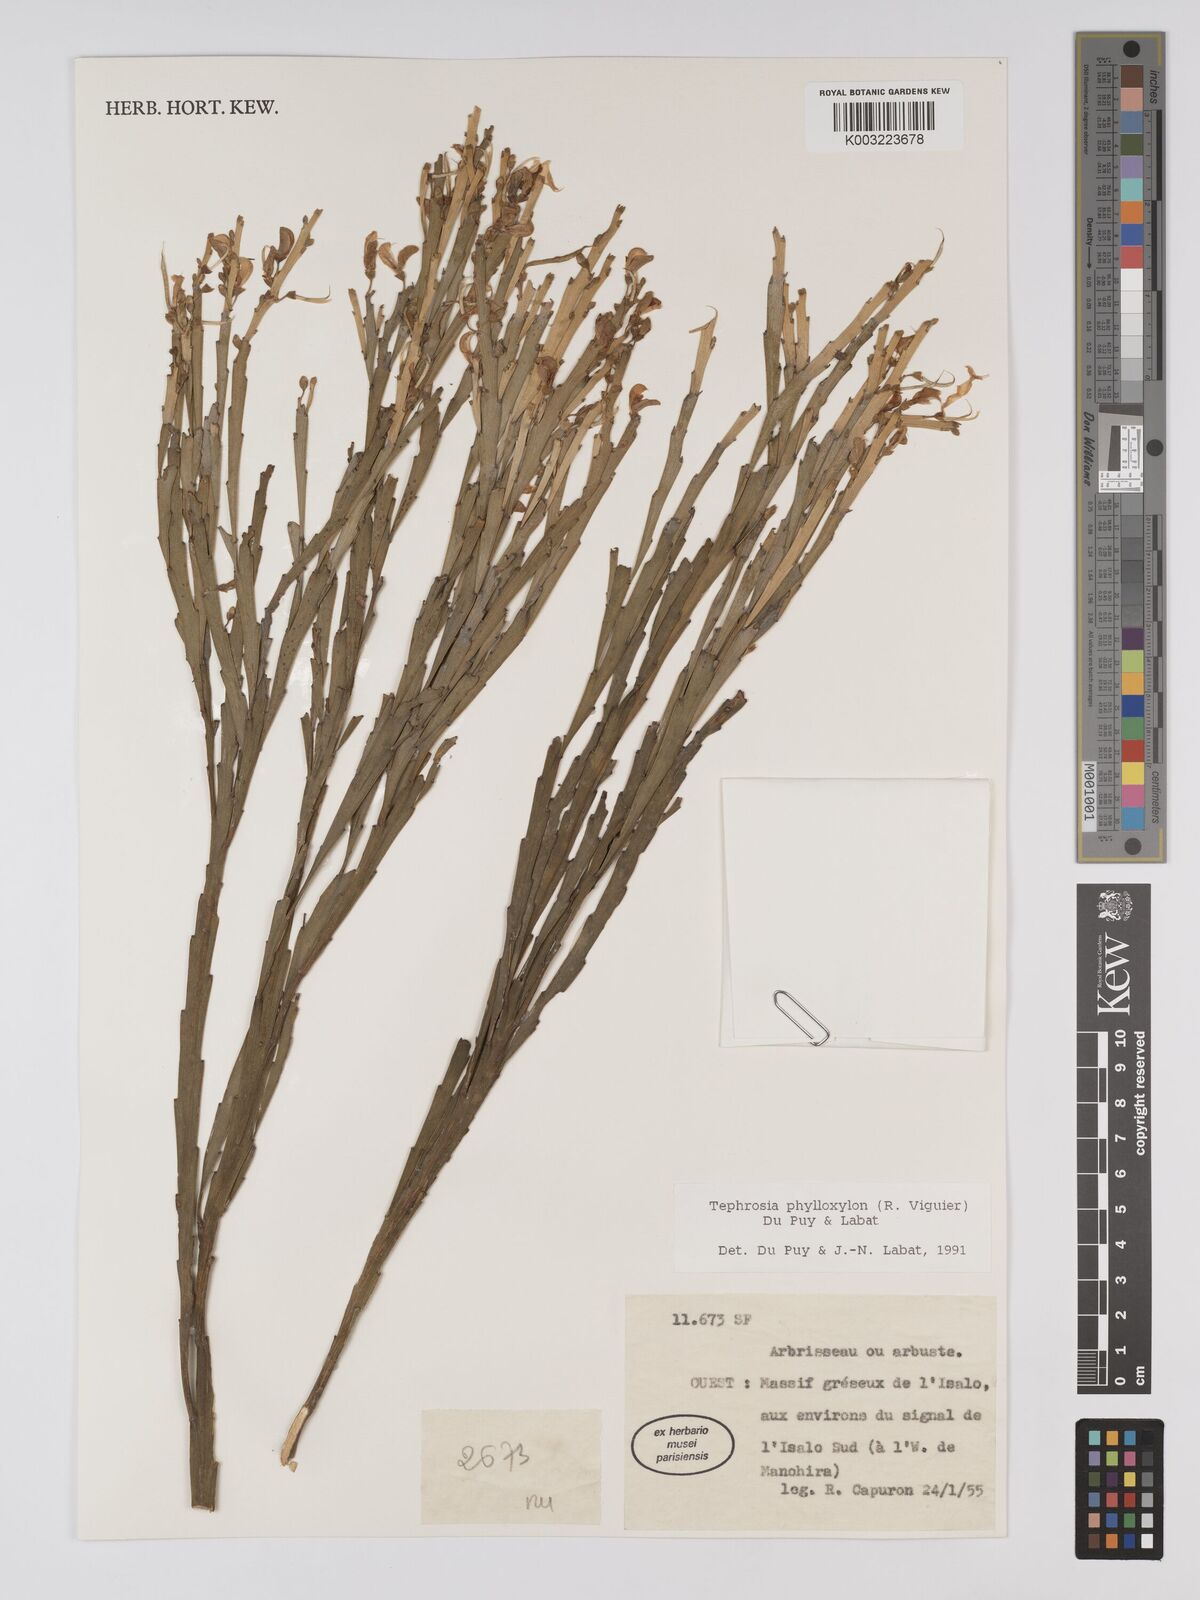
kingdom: Plantae
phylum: Tracheophyta
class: Magnoliopsida
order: Fabales
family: Fabaceae
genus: Tephrosia
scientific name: Tephrosia phylloxylon
